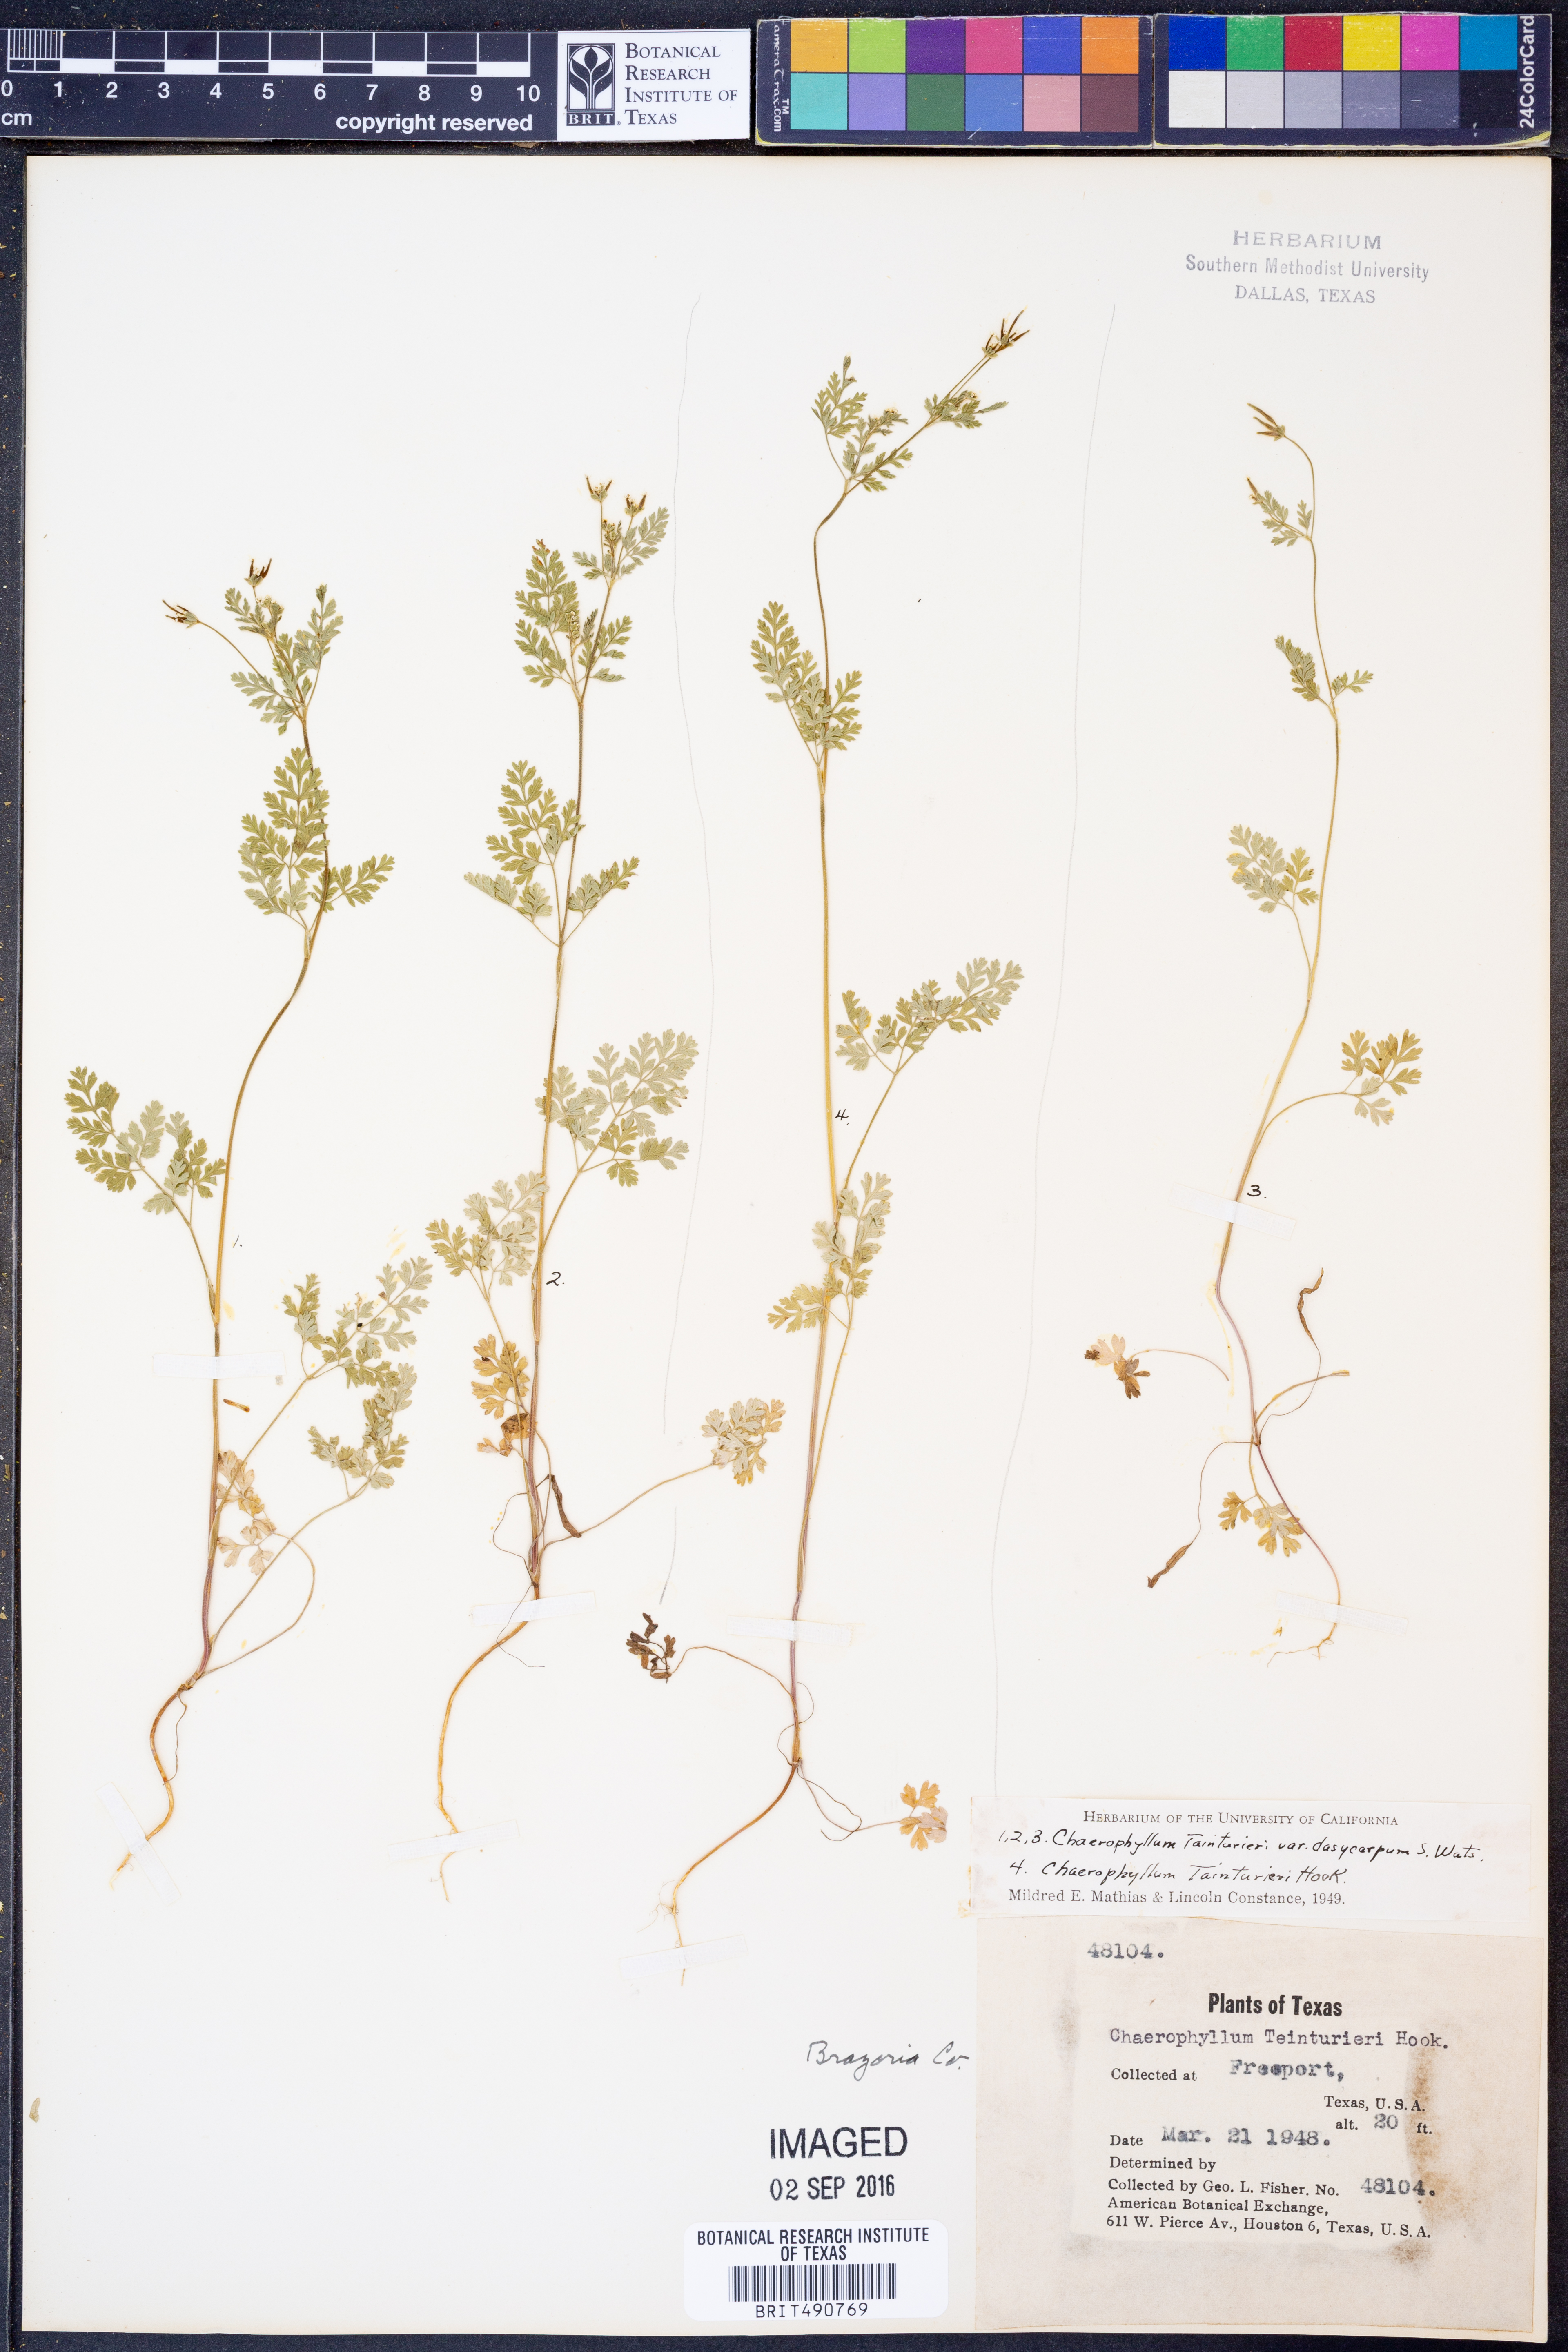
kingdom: Plantae
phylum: Tracheophyta
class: Magnoliopsida
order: Apiales
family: Apiaceae
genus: Chaerophyllum
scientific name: Chaerophyllum dasycarpum
